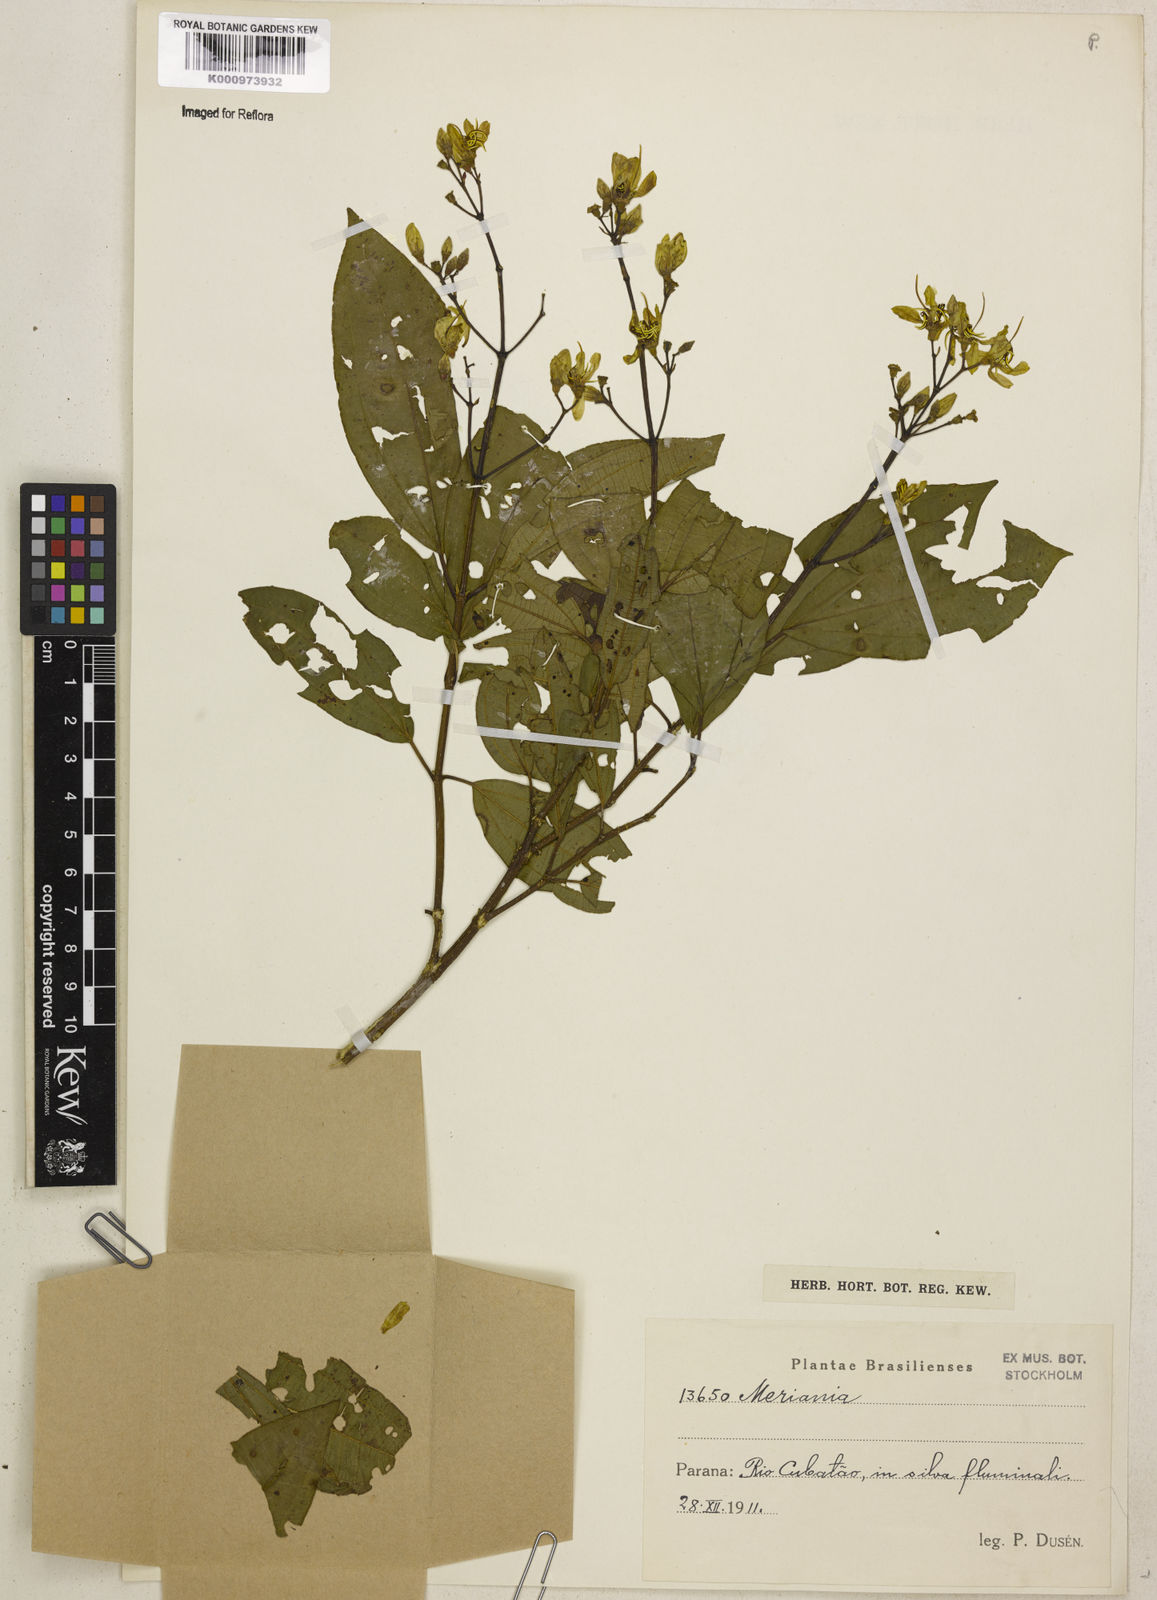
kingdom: Plantae
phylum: Tracheophyta
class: Magnoliopsida
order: Myrtales
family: Melastomataceae
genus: Meriania
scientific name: Meriania
